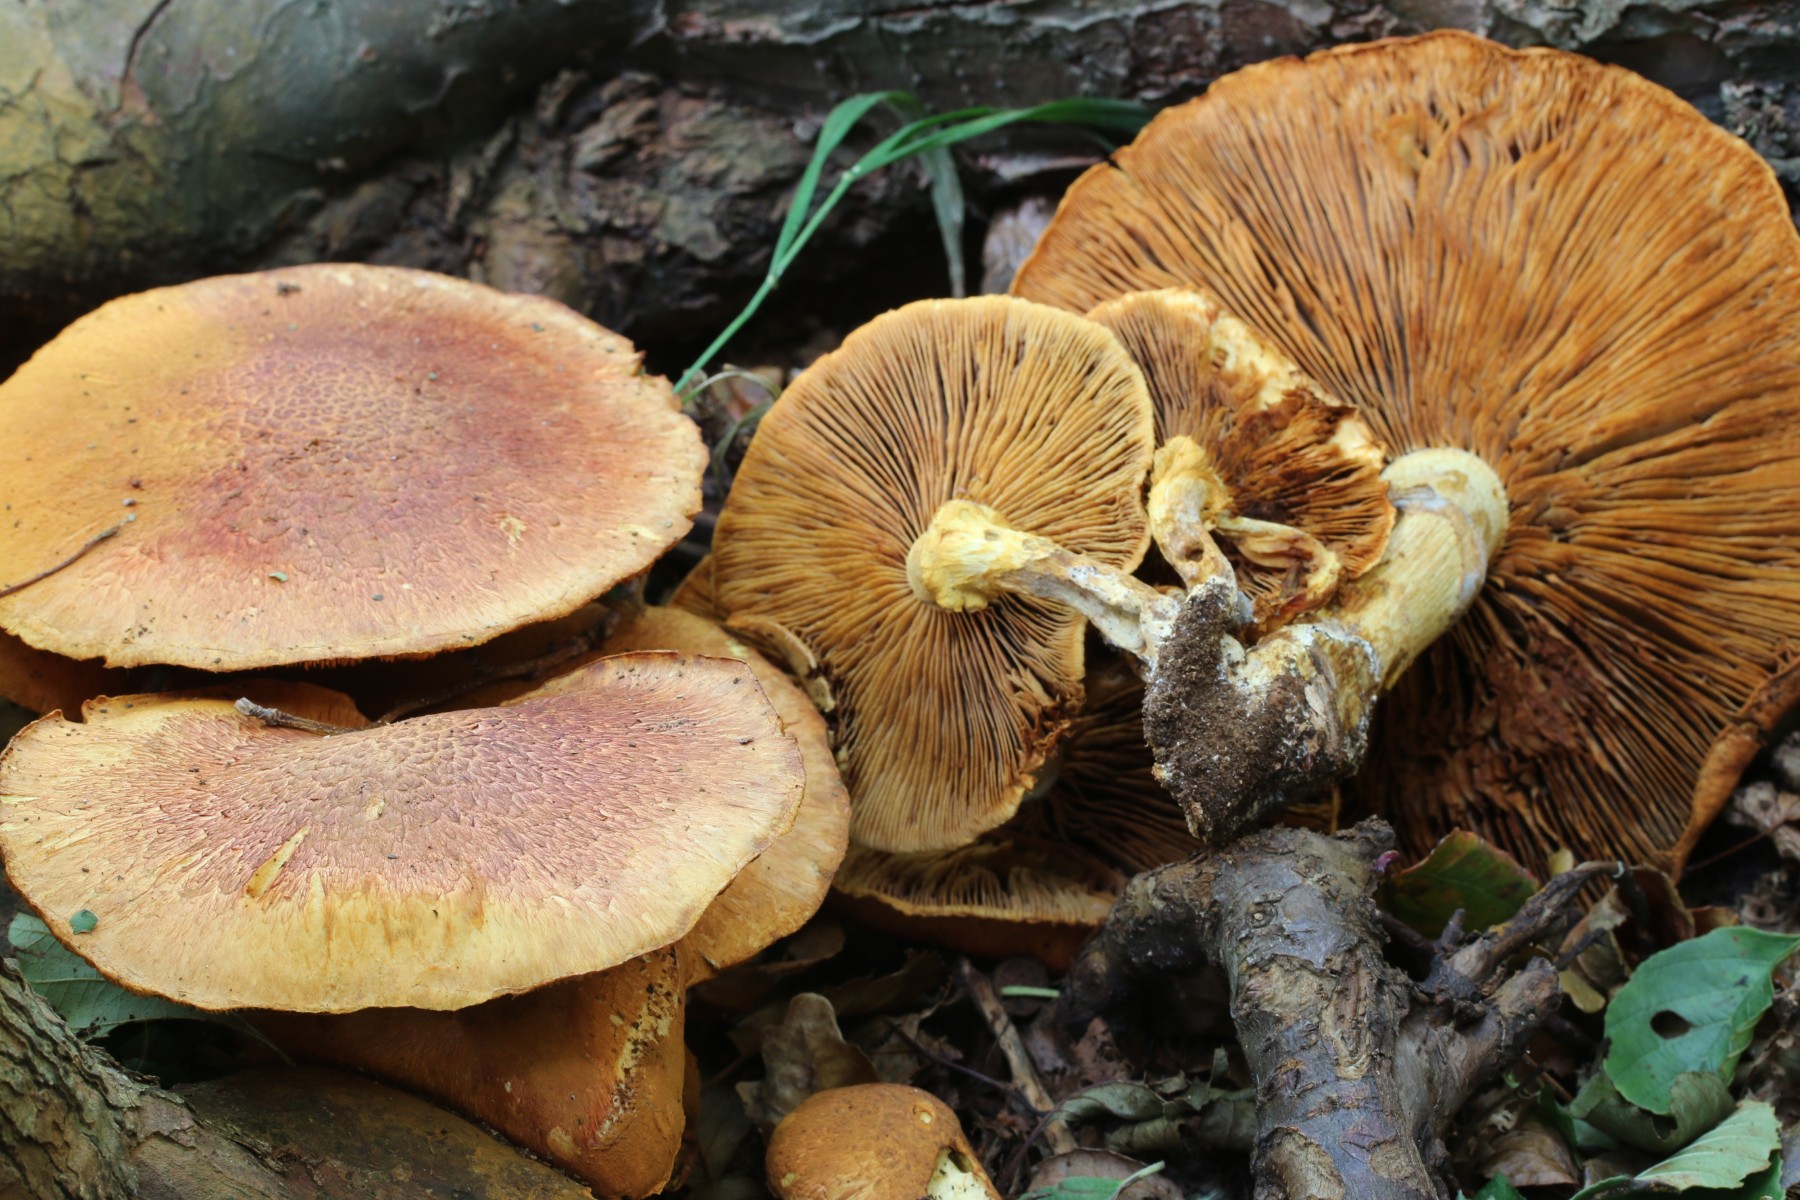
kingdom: Fungi
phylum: Basidiomycota
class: Agaricomycetes
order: Agaricales
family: Hymenogastraceae
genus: Gymnopilus
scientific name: Gymnopilus spectabilis
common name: fibret flammehat
